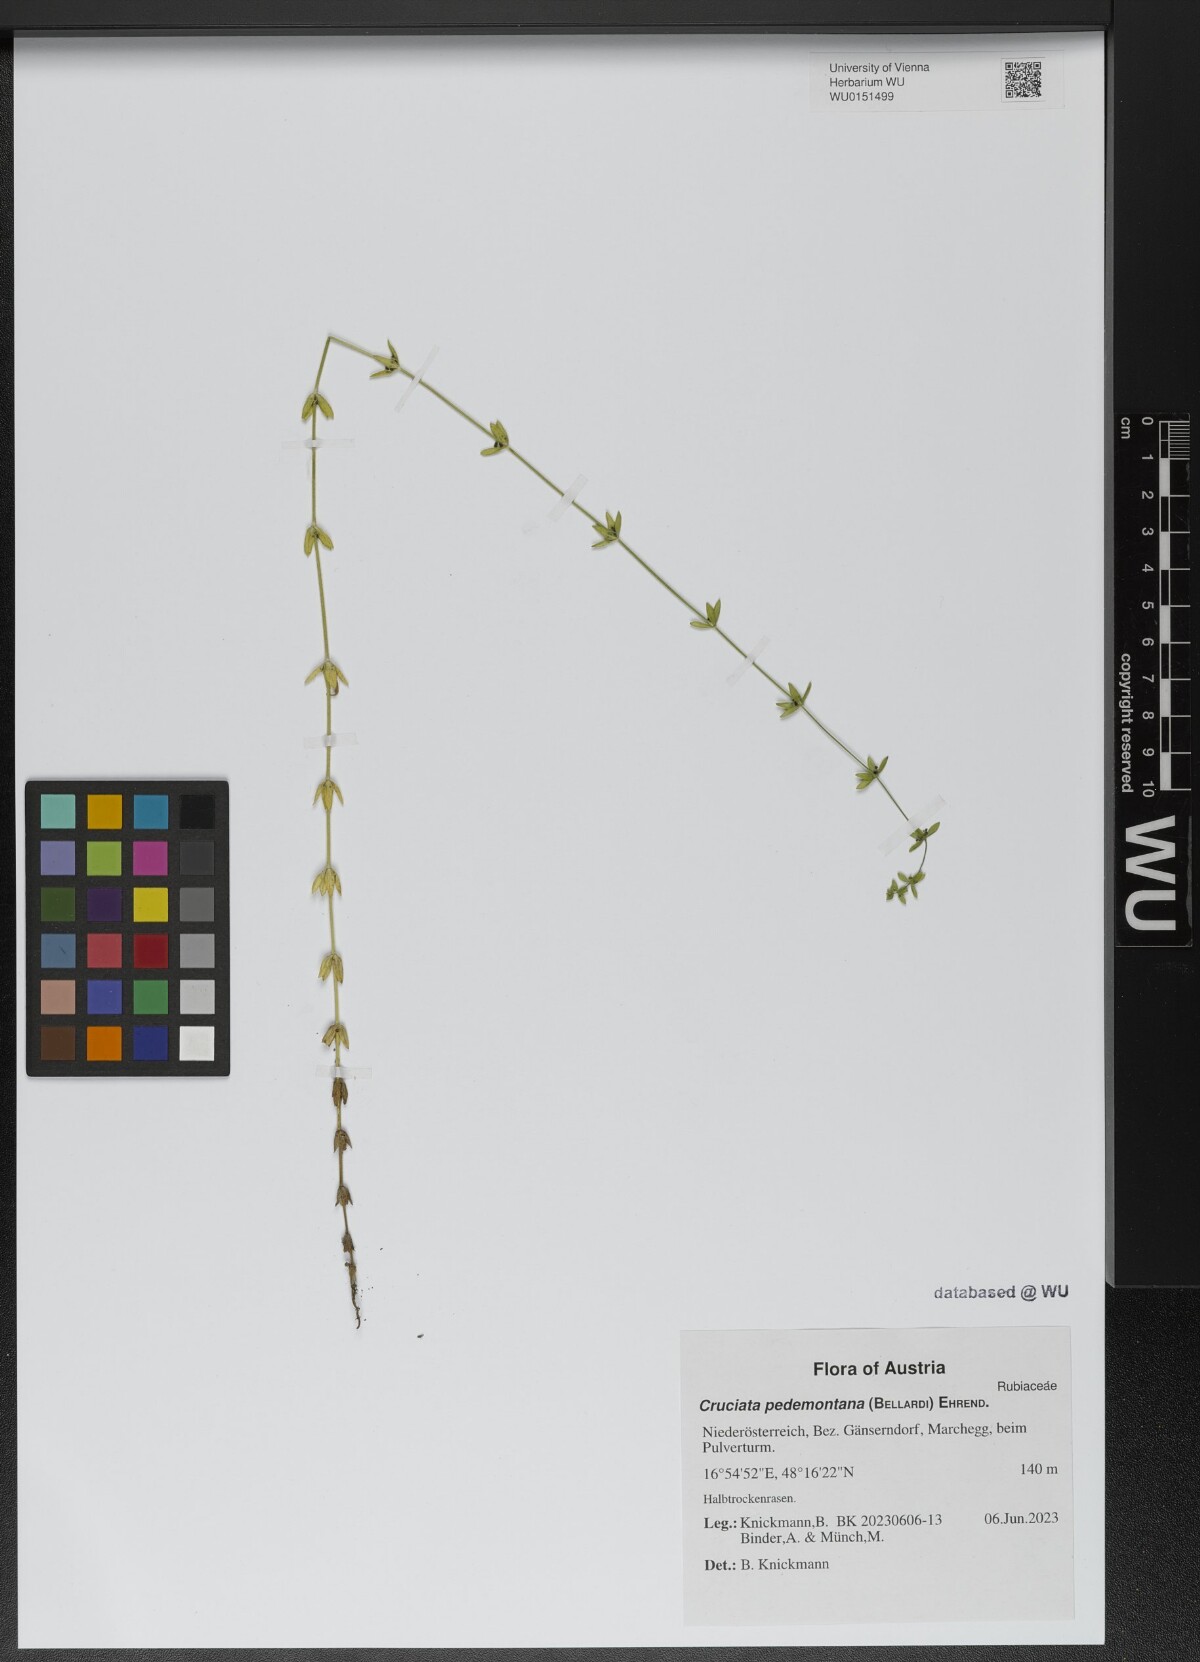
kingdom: Plantae
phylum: Tracheophyta
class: Magnoliopsida
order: Gentianales
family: Rubiaceae
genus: Cruciata
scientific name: Cruciata pedemontana
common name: Piedmont bedstraw
